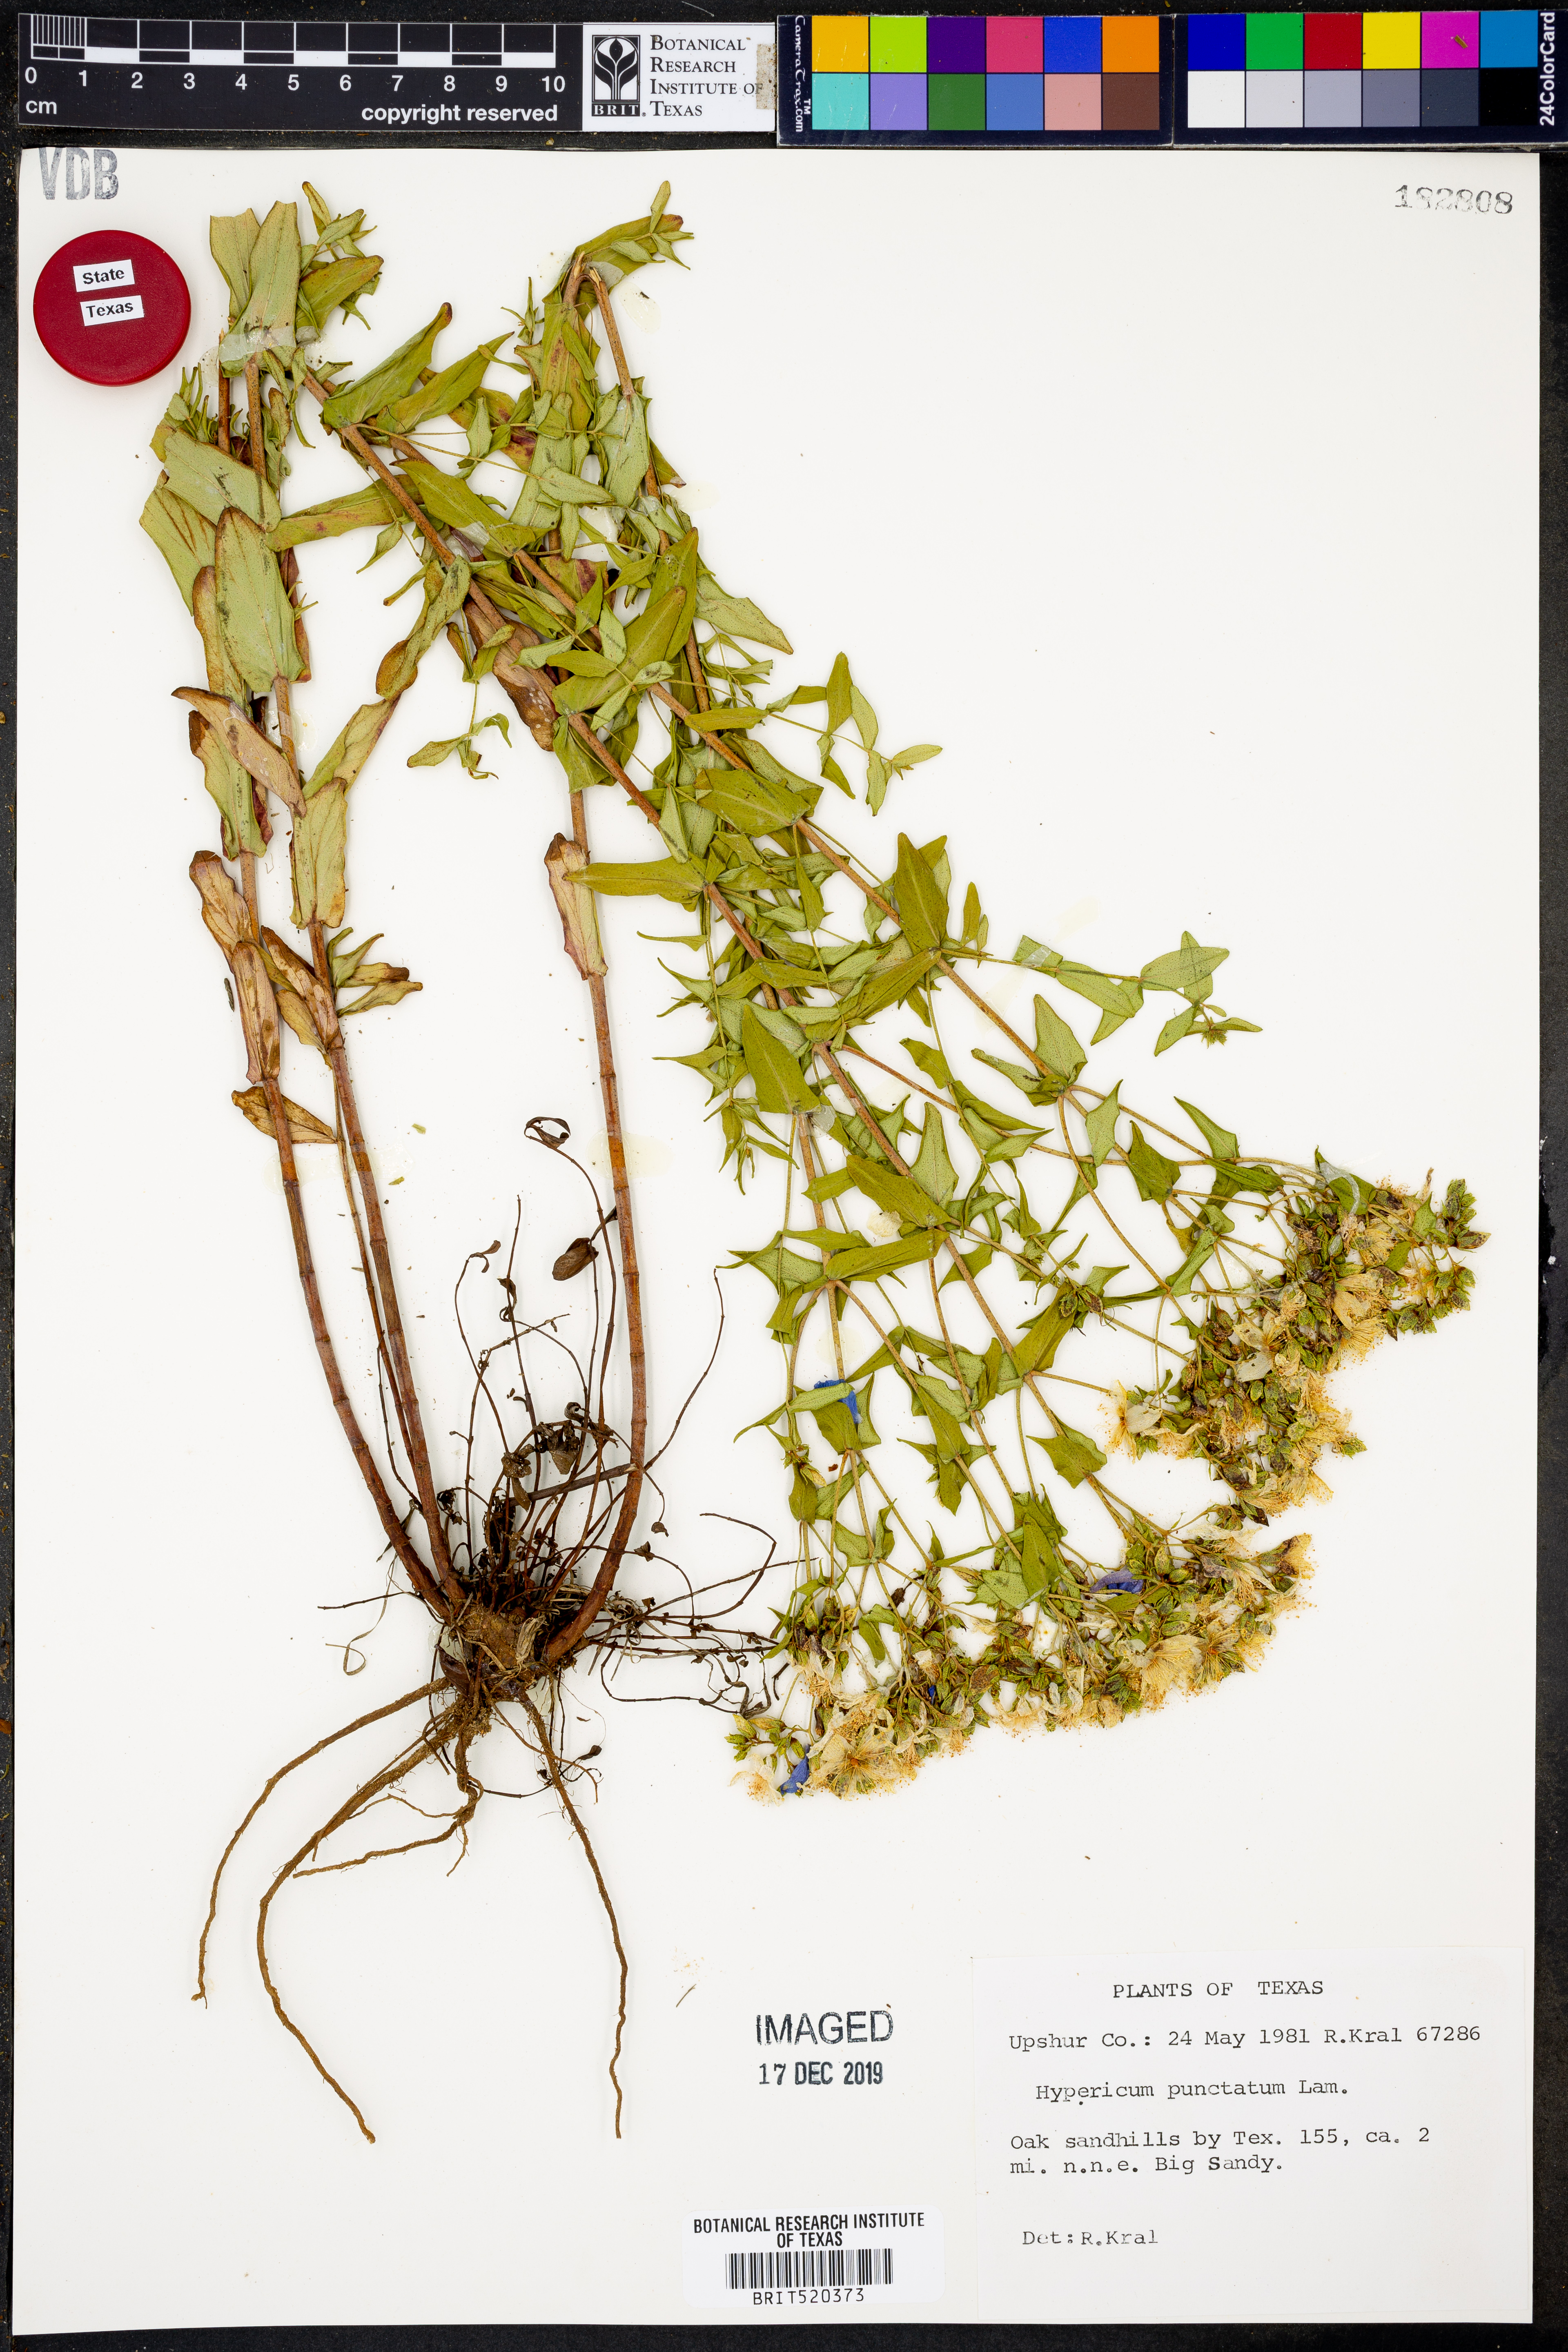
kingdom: Plantae
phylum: Tracheophyta
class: Magnoliopsida
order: Malpighiales
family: Hypericaceae
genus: Hypericum
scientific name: Hypericum punctatum
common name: Spotted st. john's-wort
